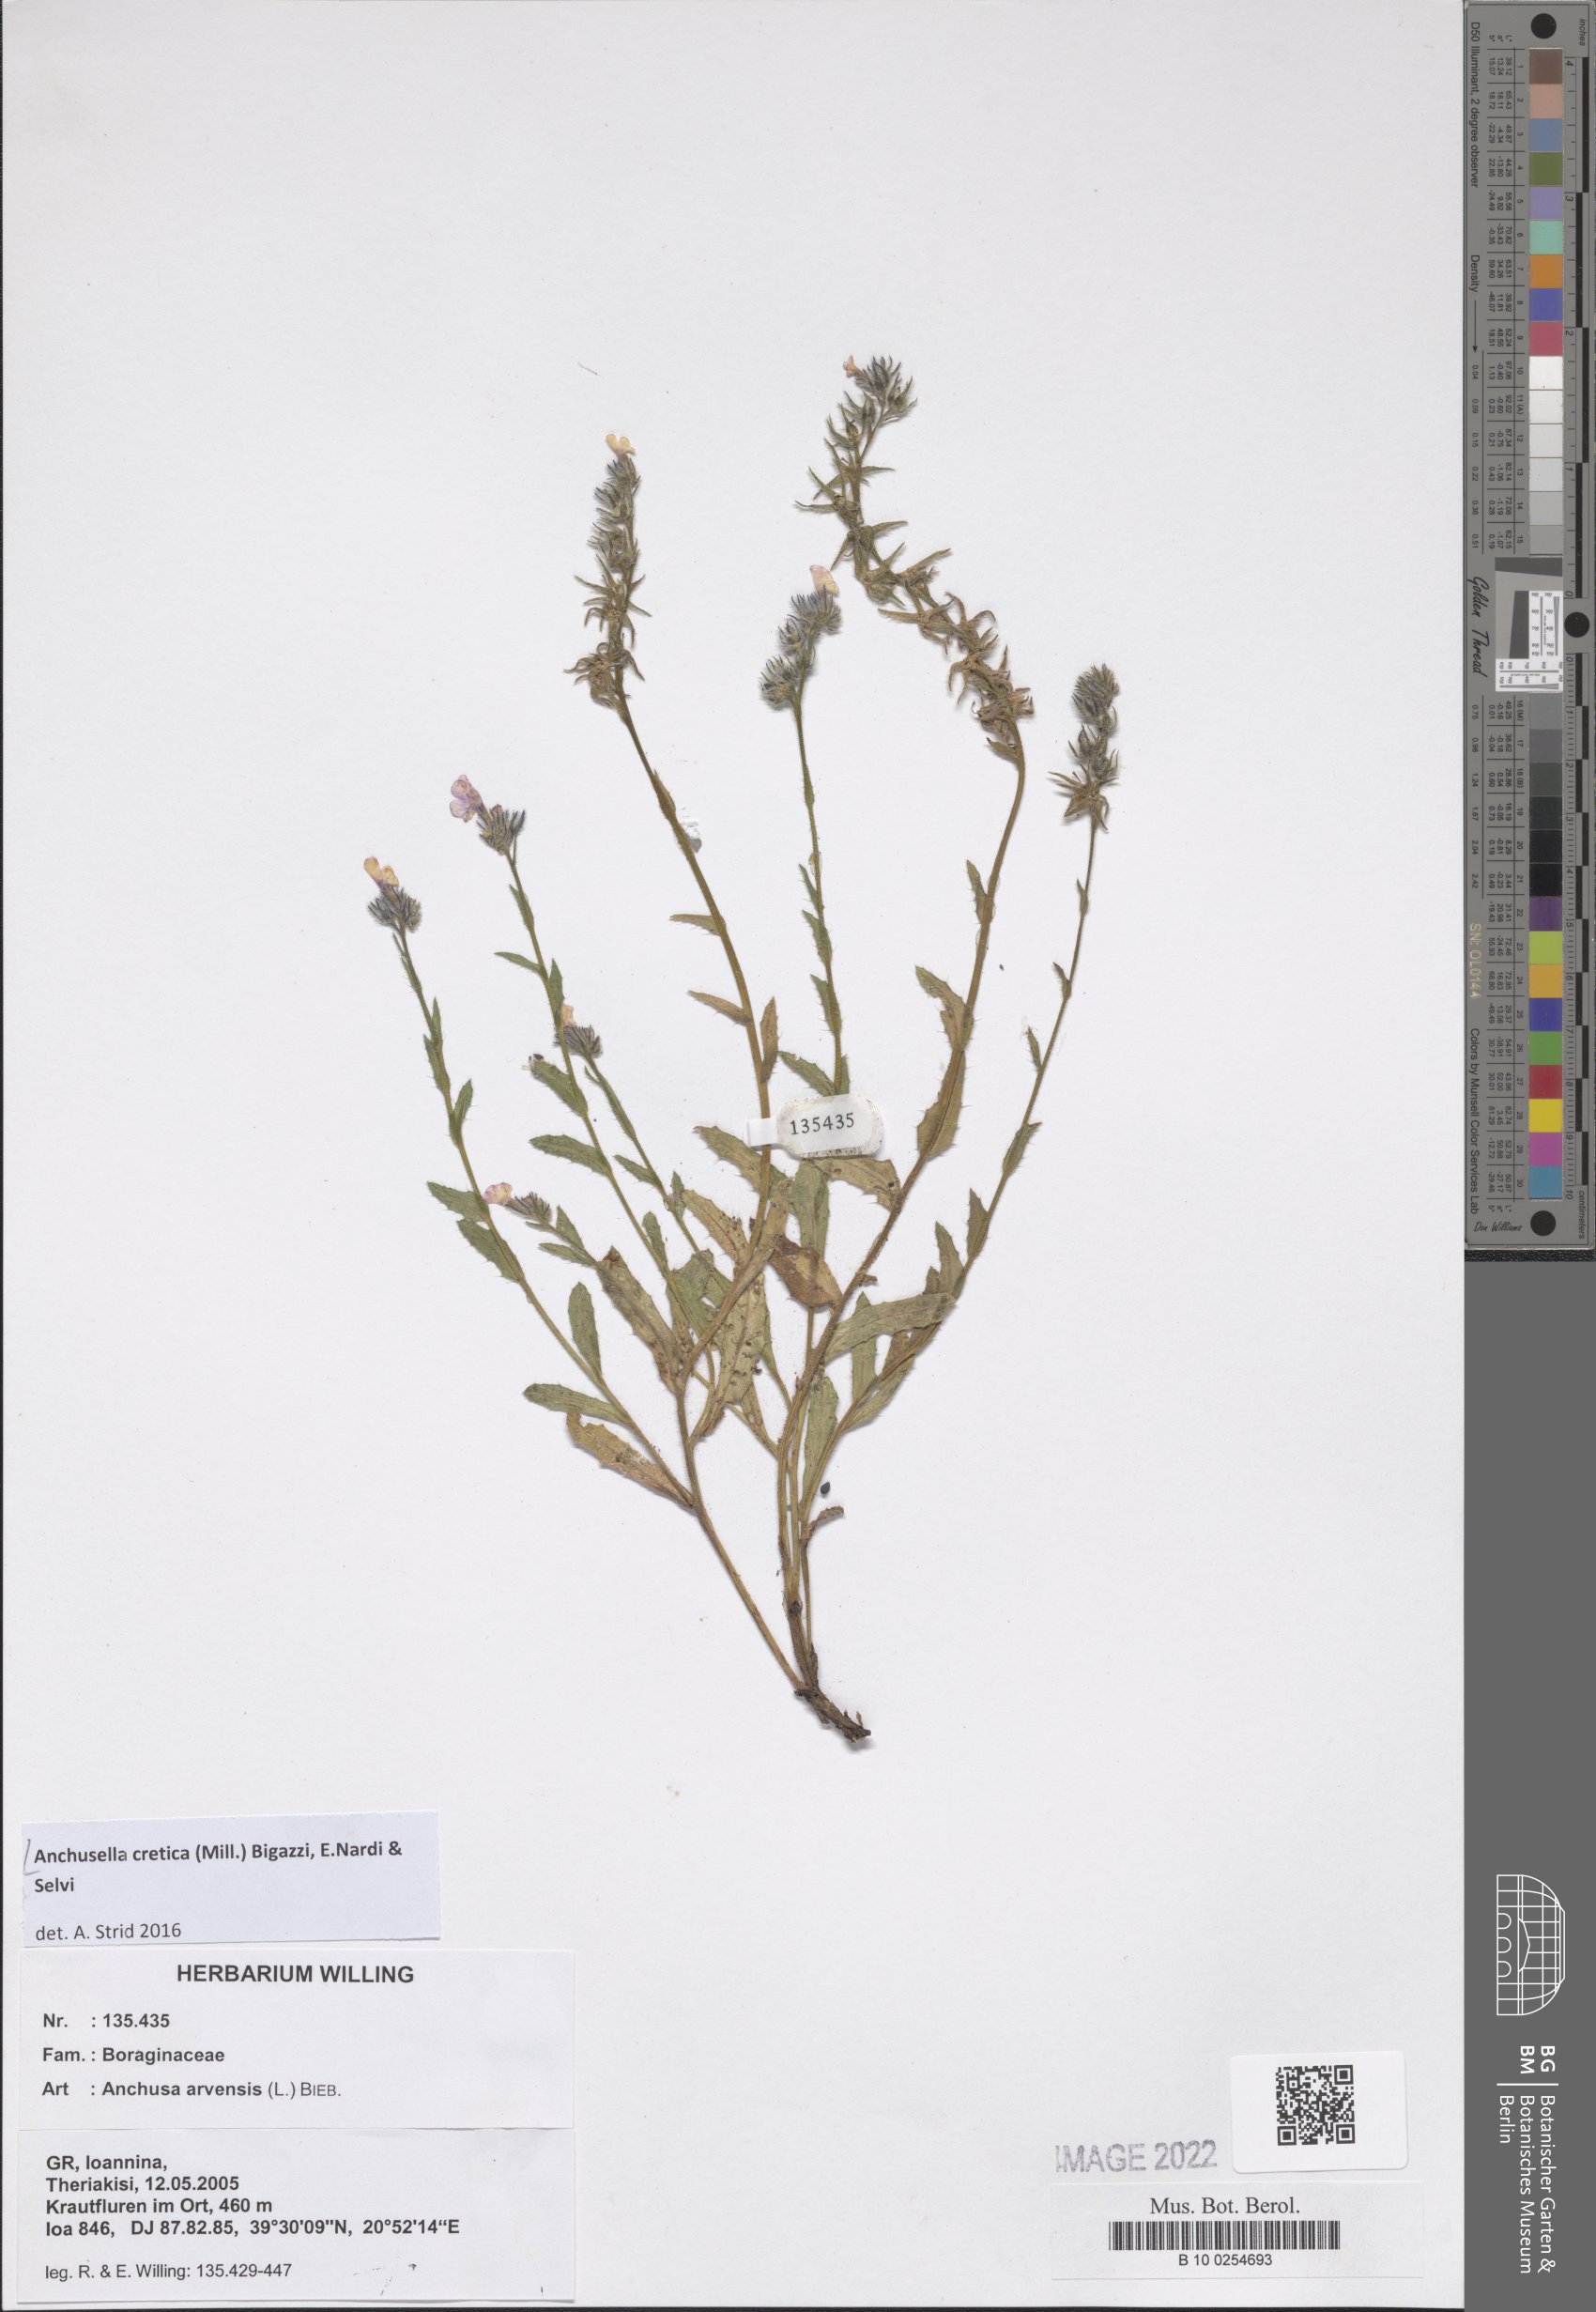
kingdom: Plantae
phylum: Tracheophyta
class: Magnoliopsida
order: Boraginales
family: Boraginaceae
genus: Anchusella
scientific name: Anchusella cretica
